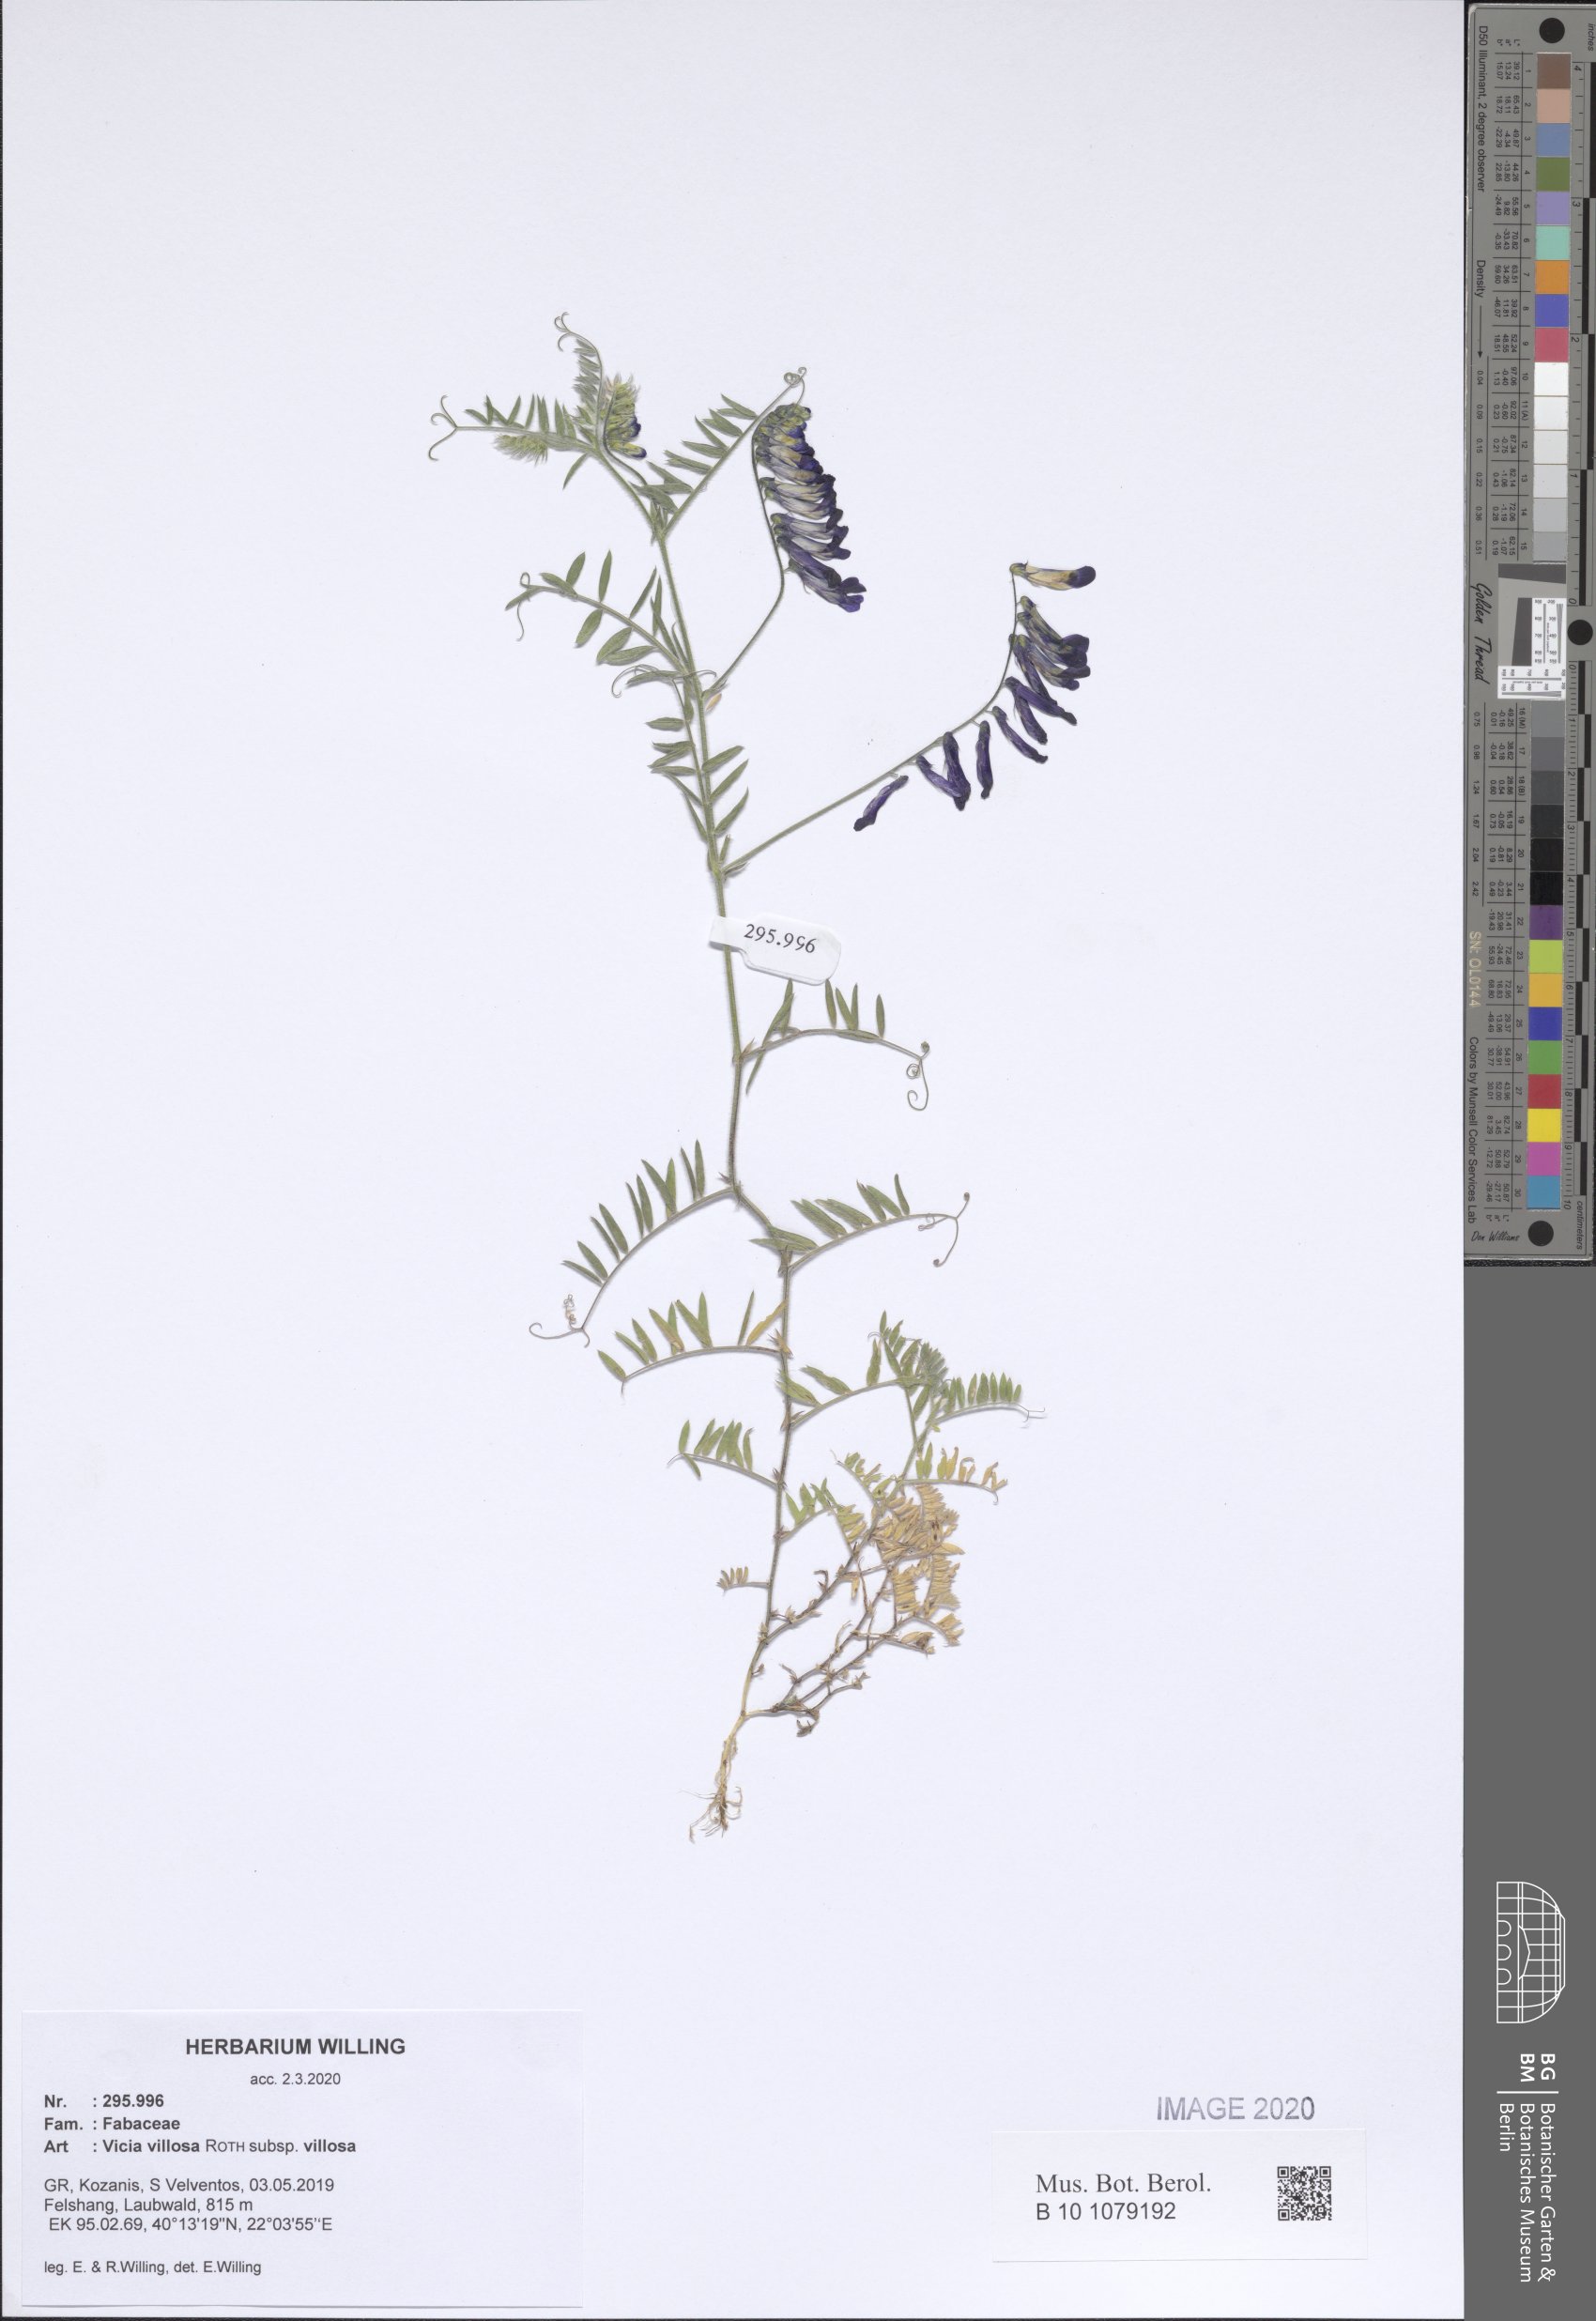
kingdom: Plantae
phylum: Tracheophyta
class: Magnoliopsida
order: Fabales
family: Fabaceae
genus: Vicia
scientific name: Vicia villosa
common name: Fodder vetch
